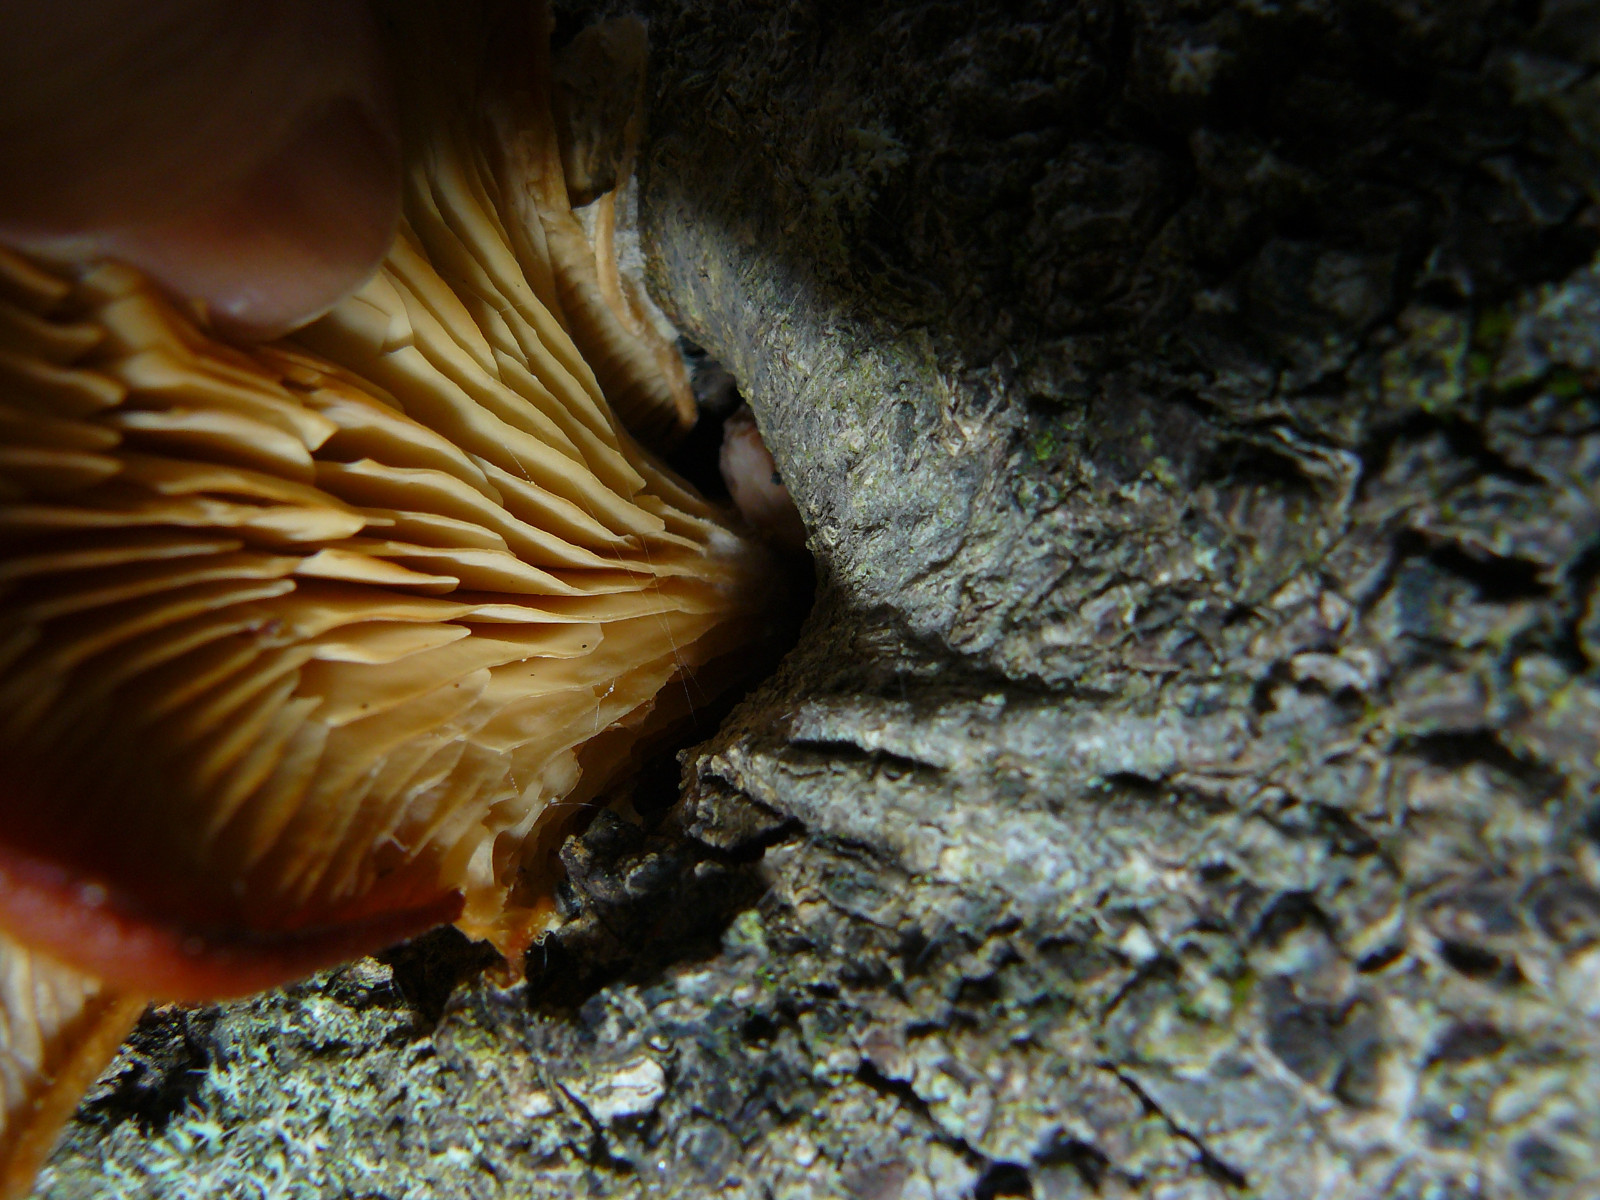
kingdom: Fungi
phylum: Basidiomycota
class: Agaricomycetes
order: Agaricales
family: Sarcomyxaceae
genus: Sarcomyxa
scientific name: Sarcomyxa serotina
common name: gummihat
